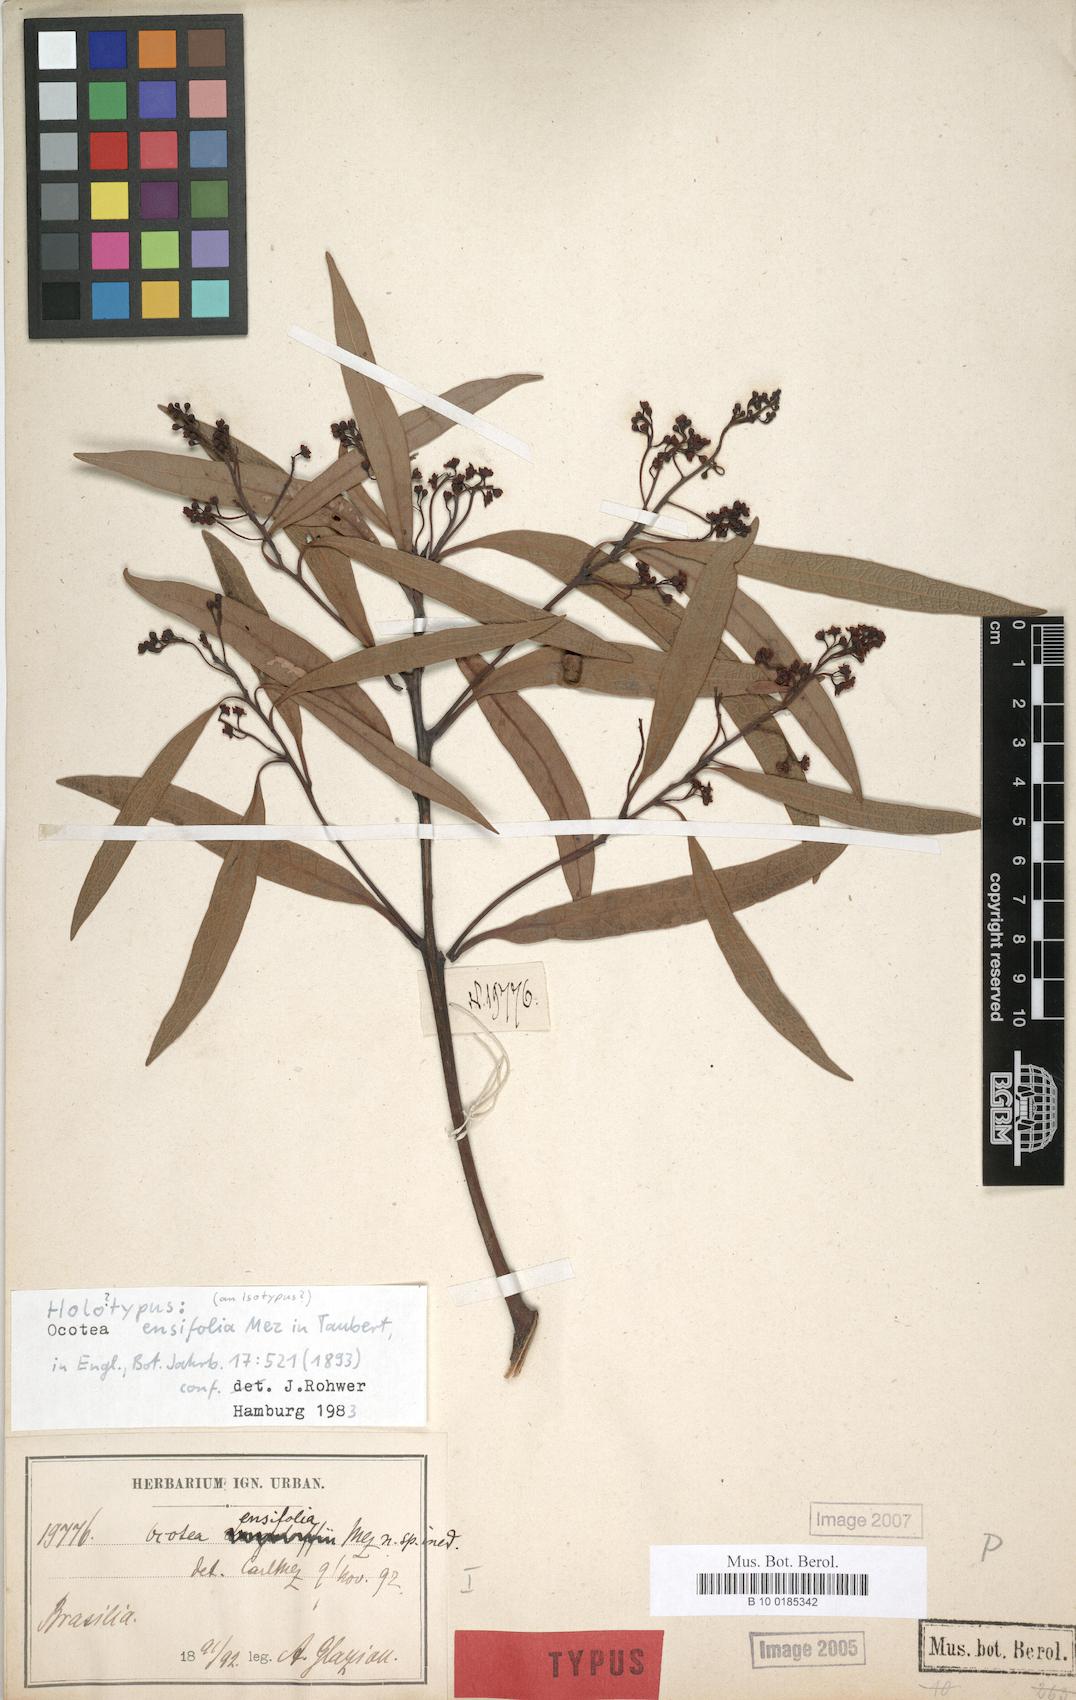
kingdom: Plantae
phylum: Tracheophyta
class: Magnoliopsida
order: Laurales
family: Lauraceae
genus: Ocotea
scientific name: Ocotea ensifolia
